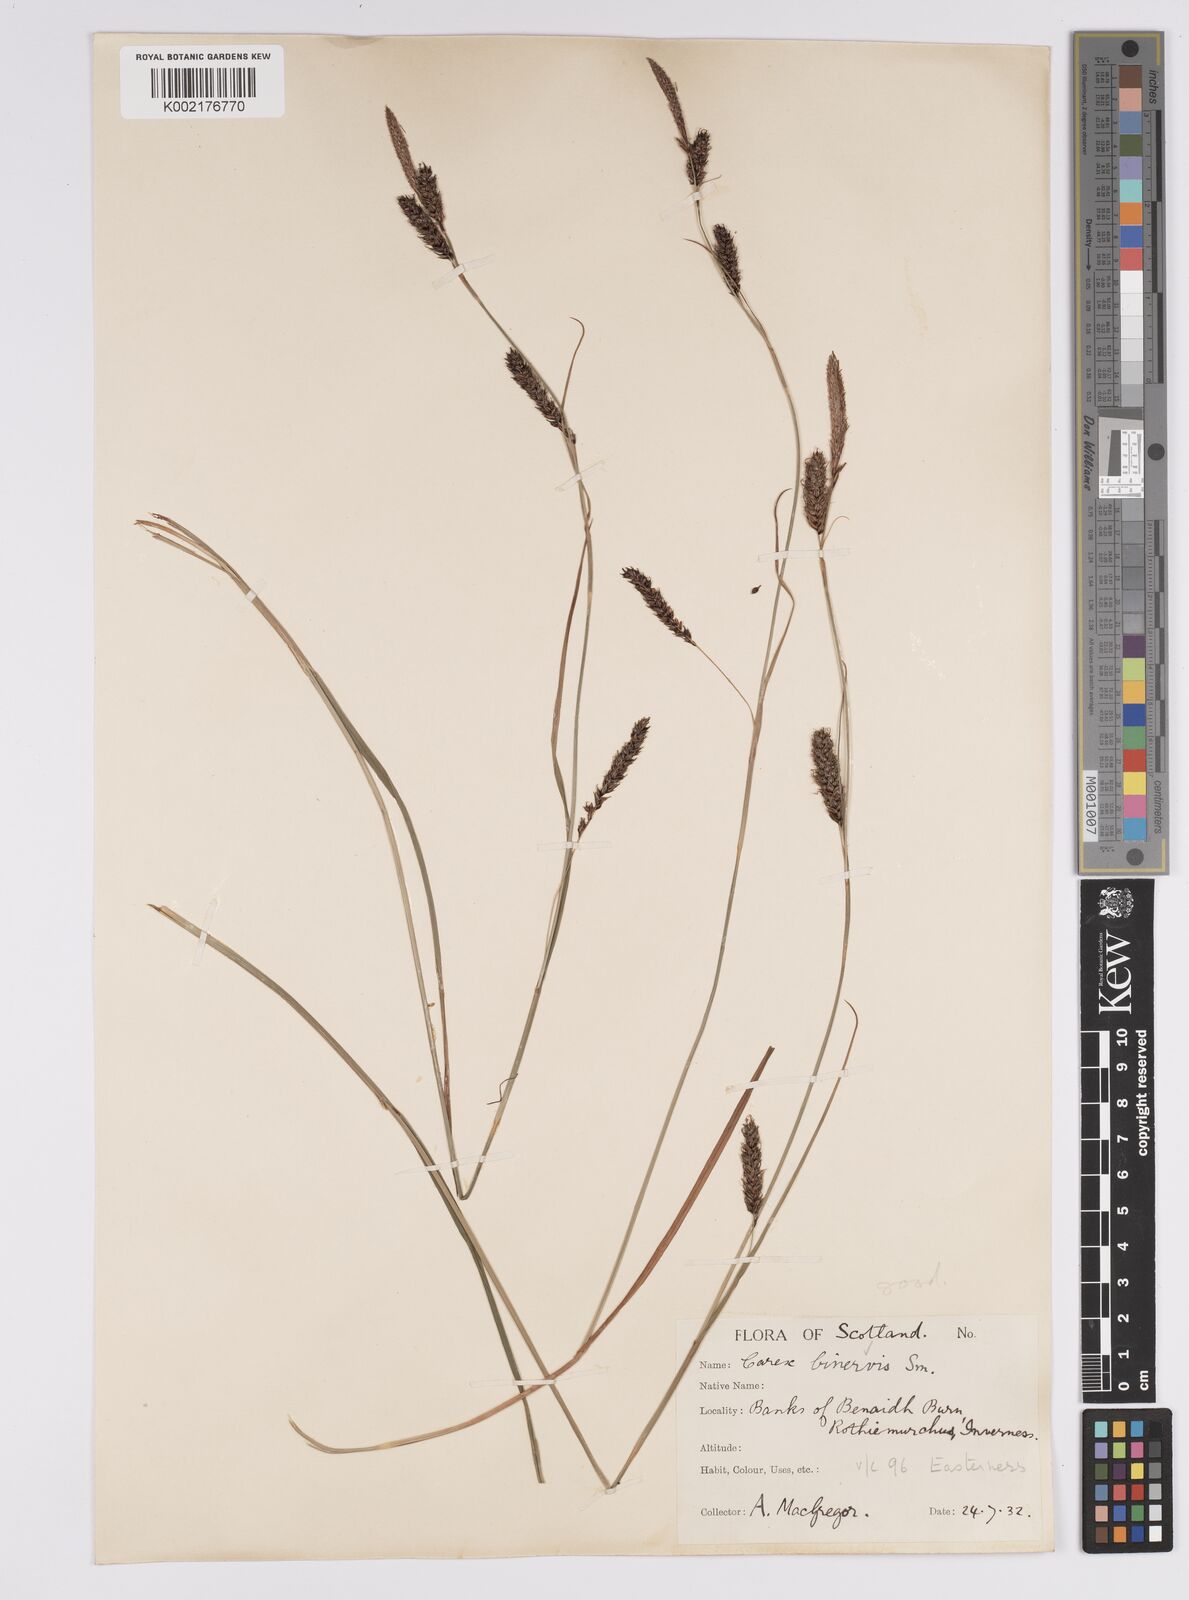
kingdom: Plantae
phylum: Tracheophyta
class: Liliopsida
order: Poales
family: Cyperaceae
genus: Carex
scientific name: Carex binervis
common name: Green-ribbed sedge
